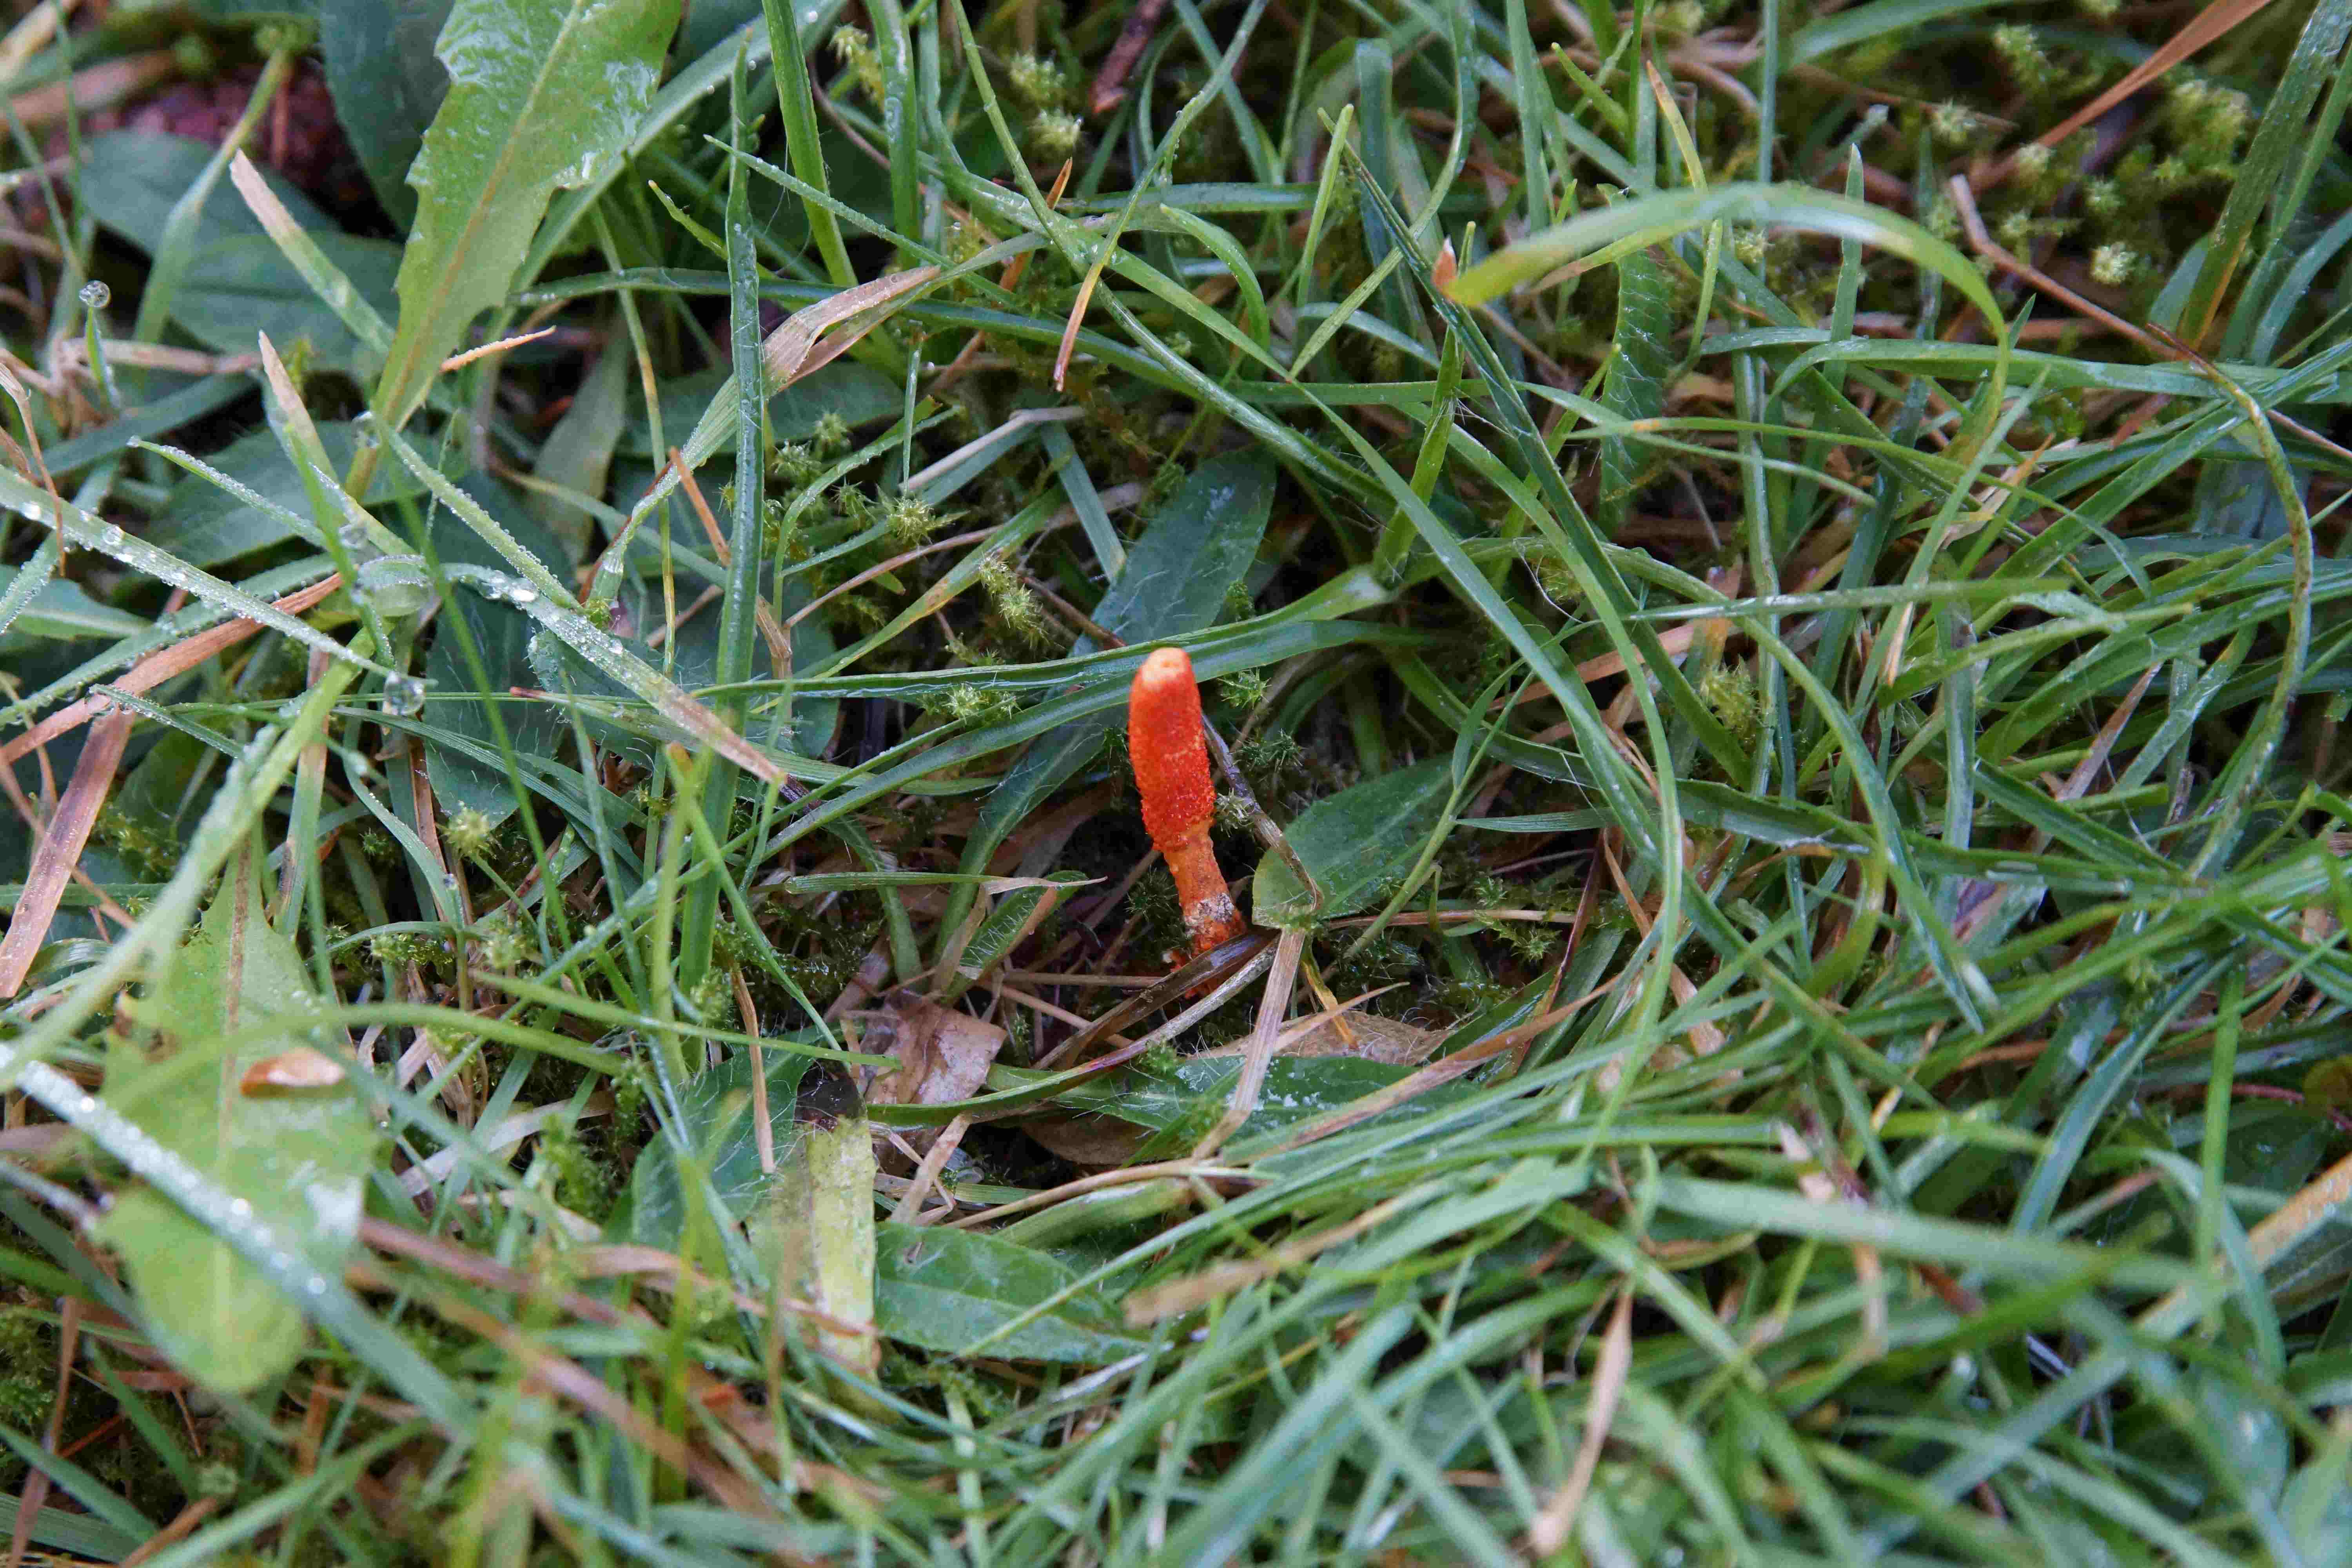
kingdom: Fungi
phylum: Ascomycota
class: Sordariomycetes
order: Hypocreales
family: Cordycipitaceae
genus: Cordyceps
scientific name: Cordyceps militaris
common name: puppe-snyltekølle
